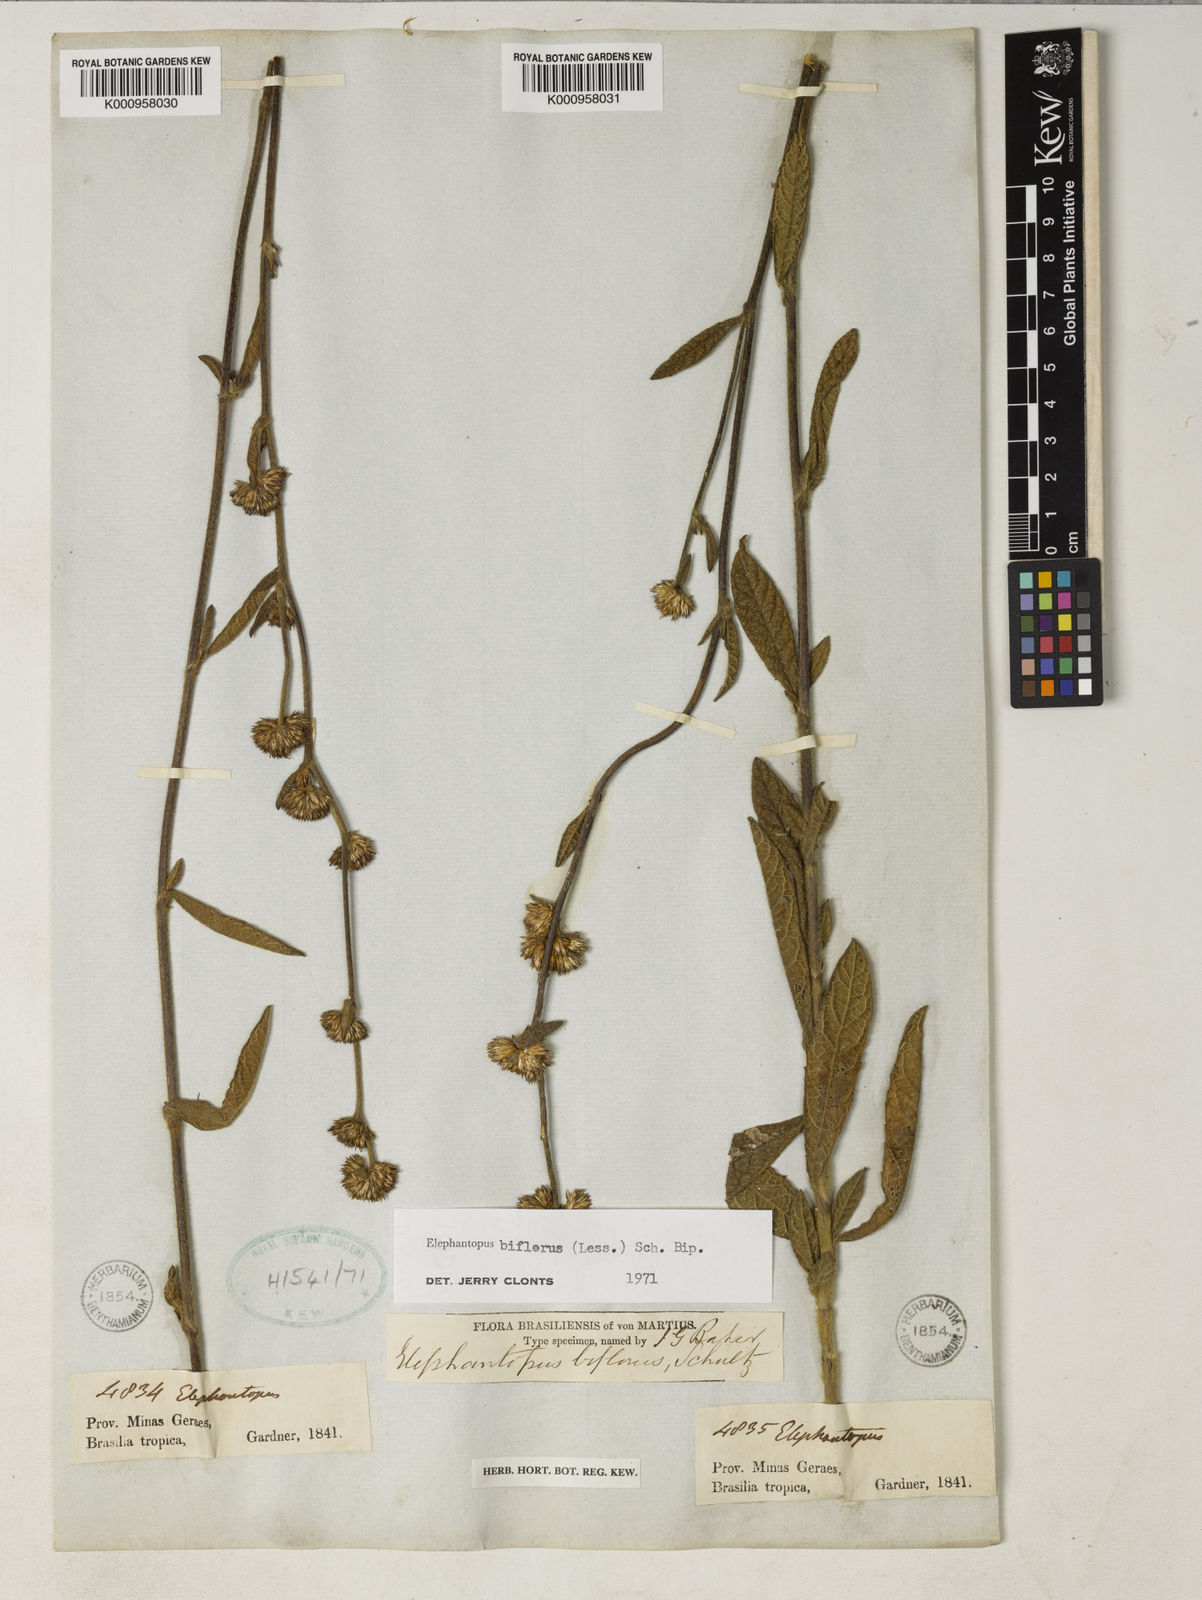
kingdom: Plantae
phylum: Tracheophyta
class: Magnoliopsida
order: Asterales
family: Asteraceae
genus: Elephantopus
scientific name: Elephantopus biflorus
